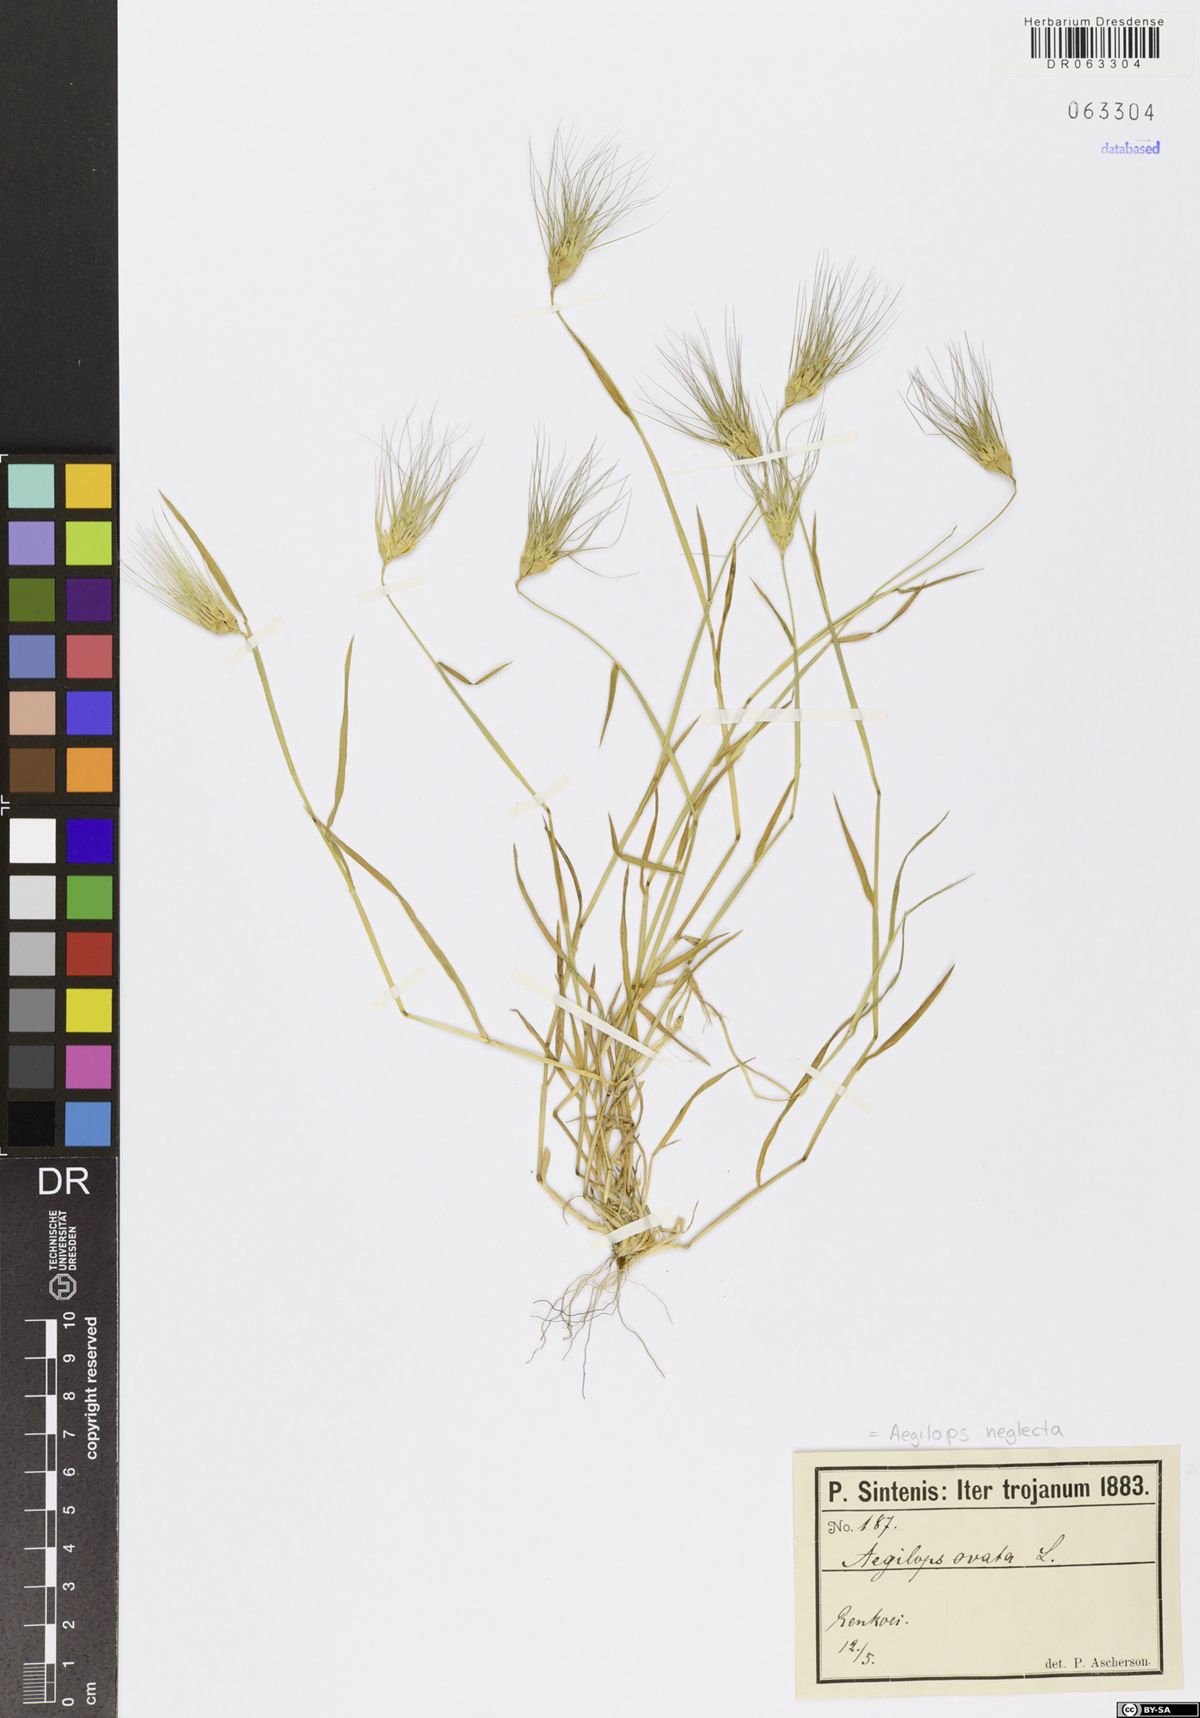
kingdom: Plantae
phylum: Tracheophyta
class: Liliopsida
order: Poales
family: Poaceae
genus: Aegilops
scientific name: Aegilops neglecta
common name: Three-awn goat grass
